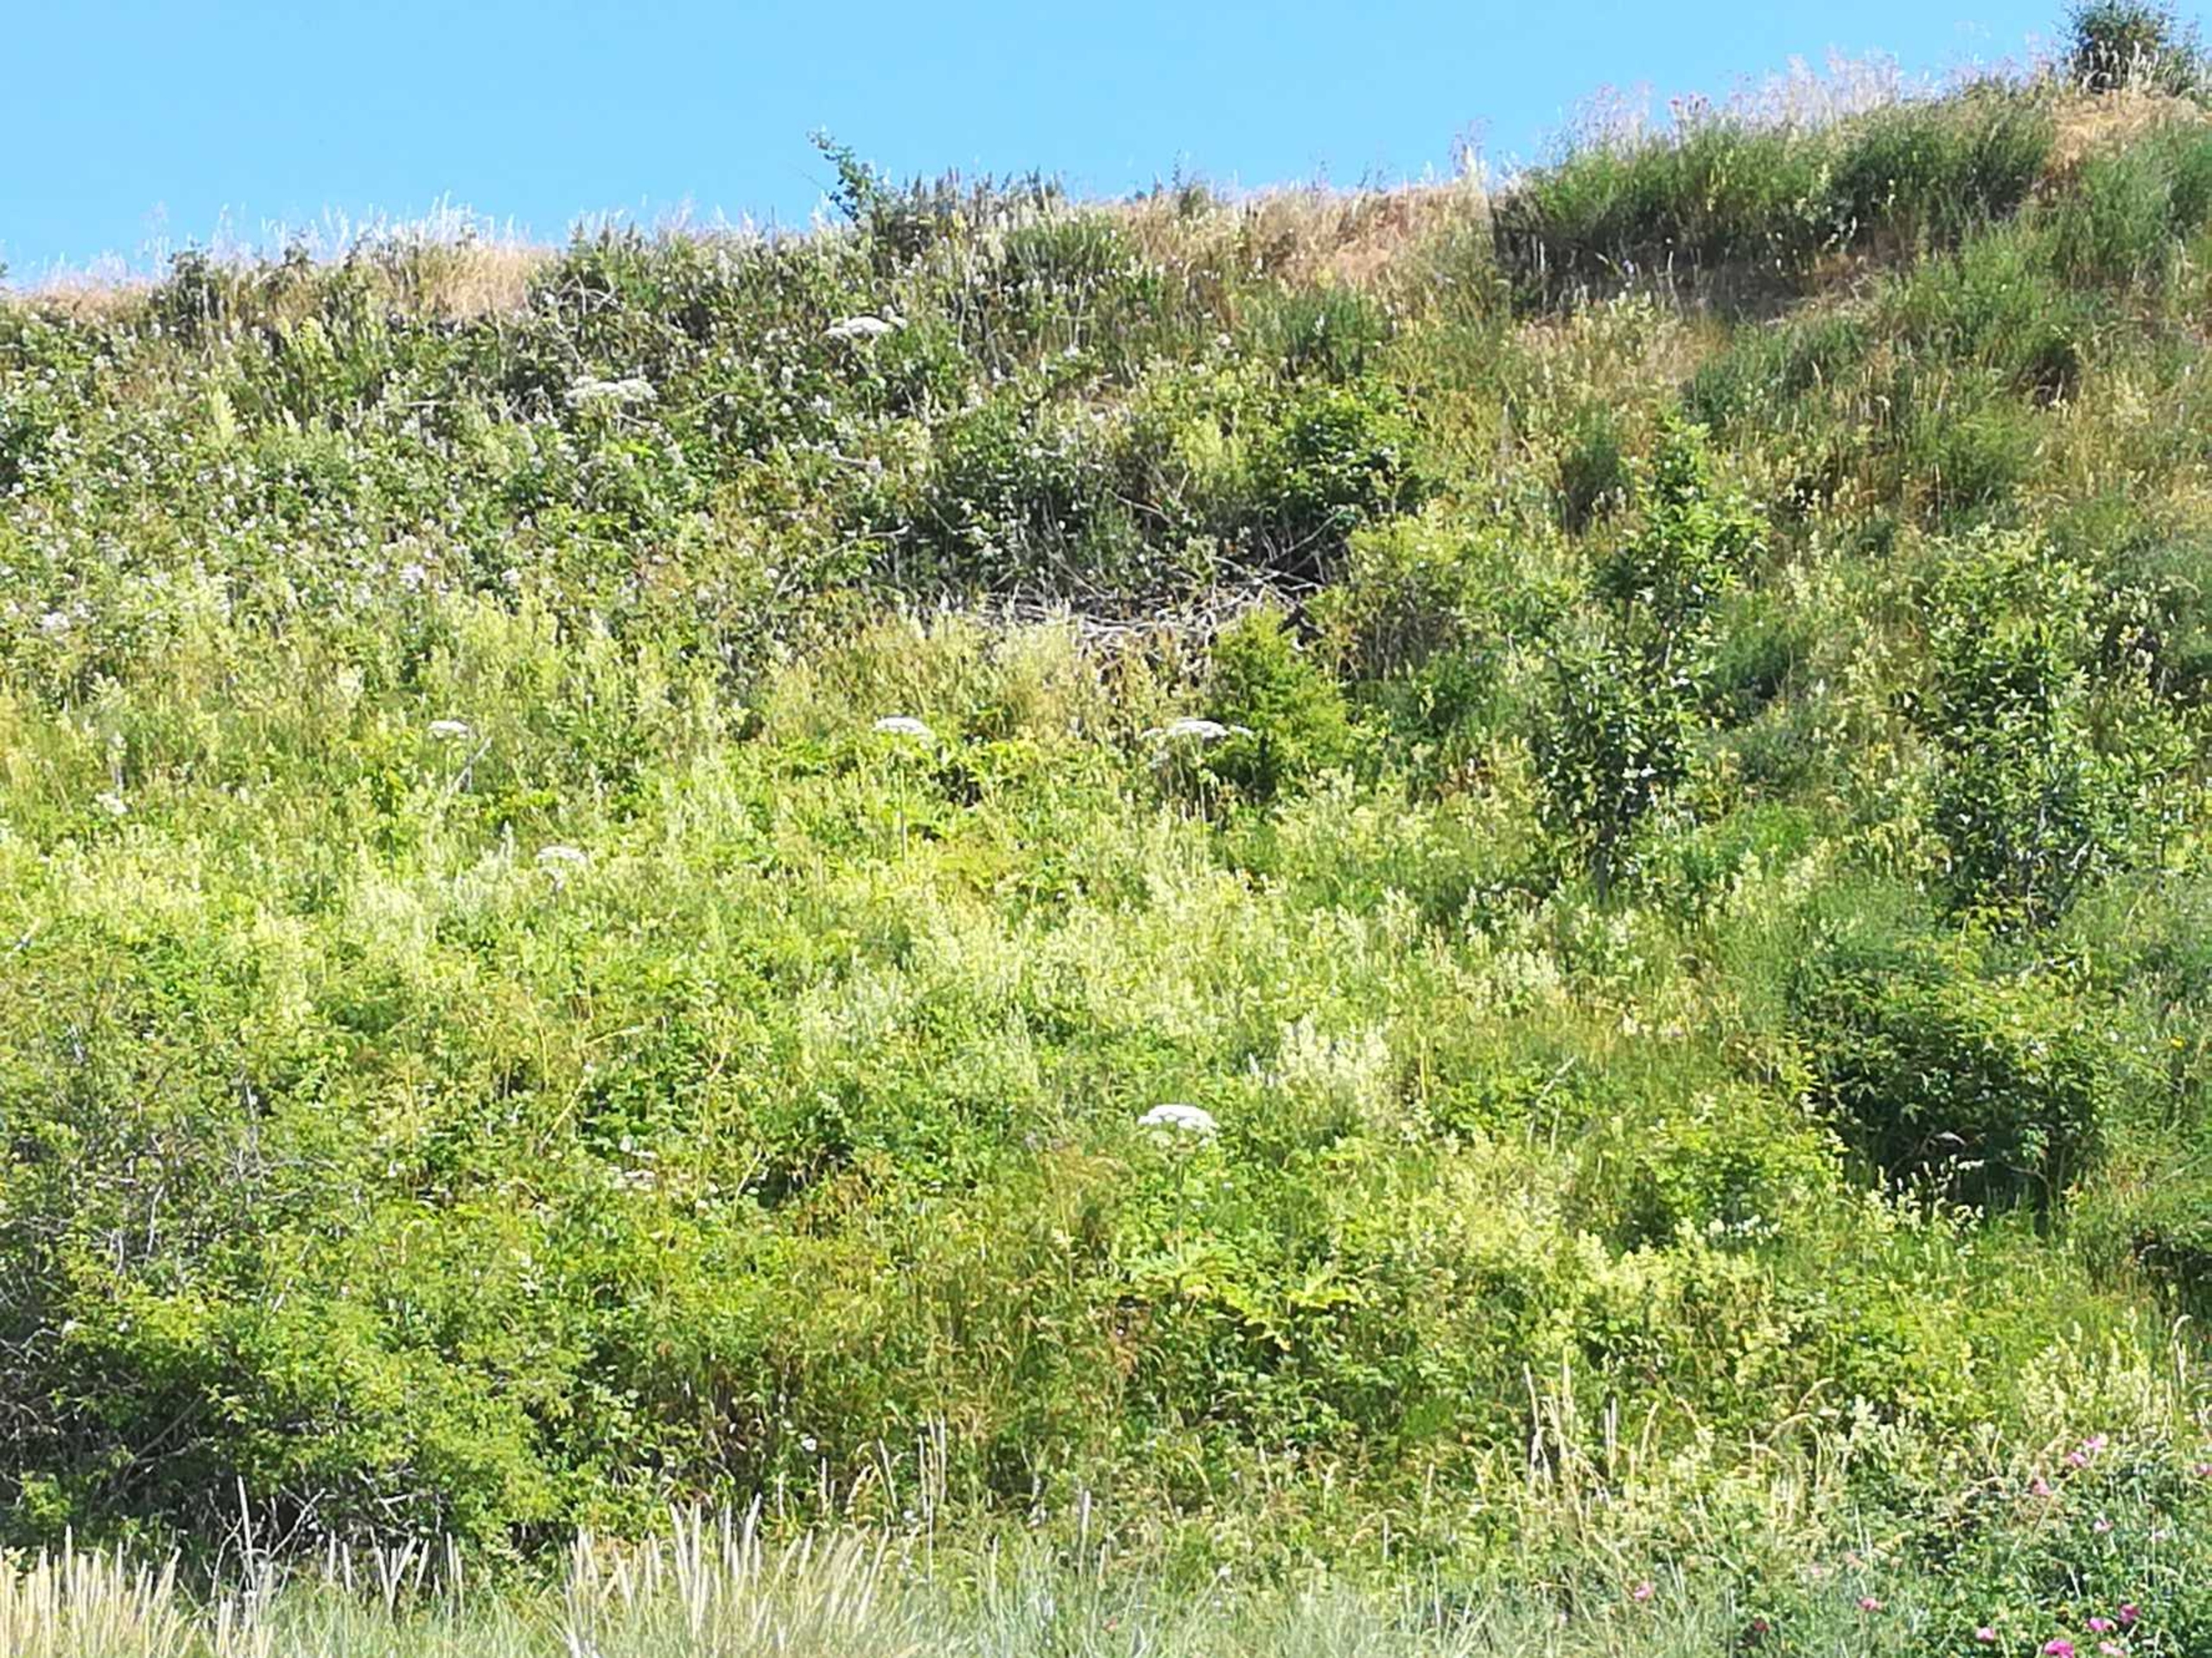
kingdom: Plantae
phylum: Tracheophyta
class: Magnoliopsida
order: Apiales
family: Apiaceae
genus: Heracleum
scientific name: Heracleum mantegazzianum
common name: Kæmpe-bjørneklo
